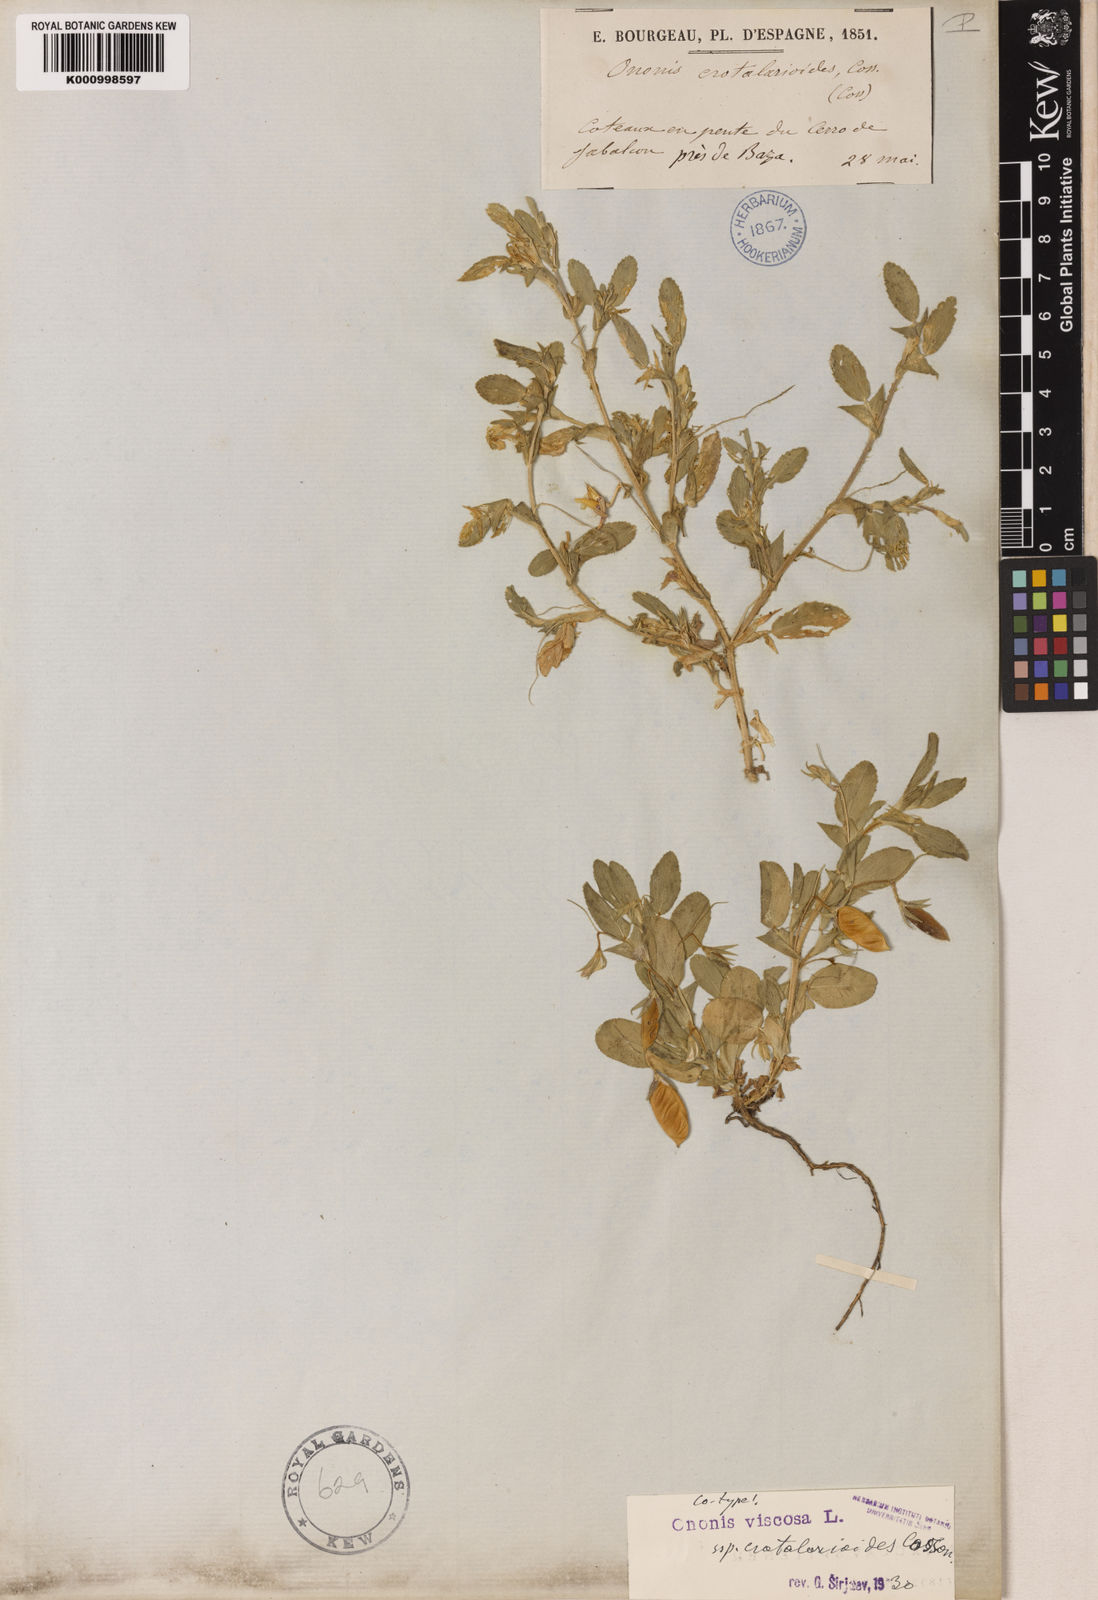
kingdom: Plantae
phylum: Tracheophyta
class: Magnoliopsida
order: Fabales
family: Fabaceae
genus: Ononis
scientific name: Ononis viscosa
